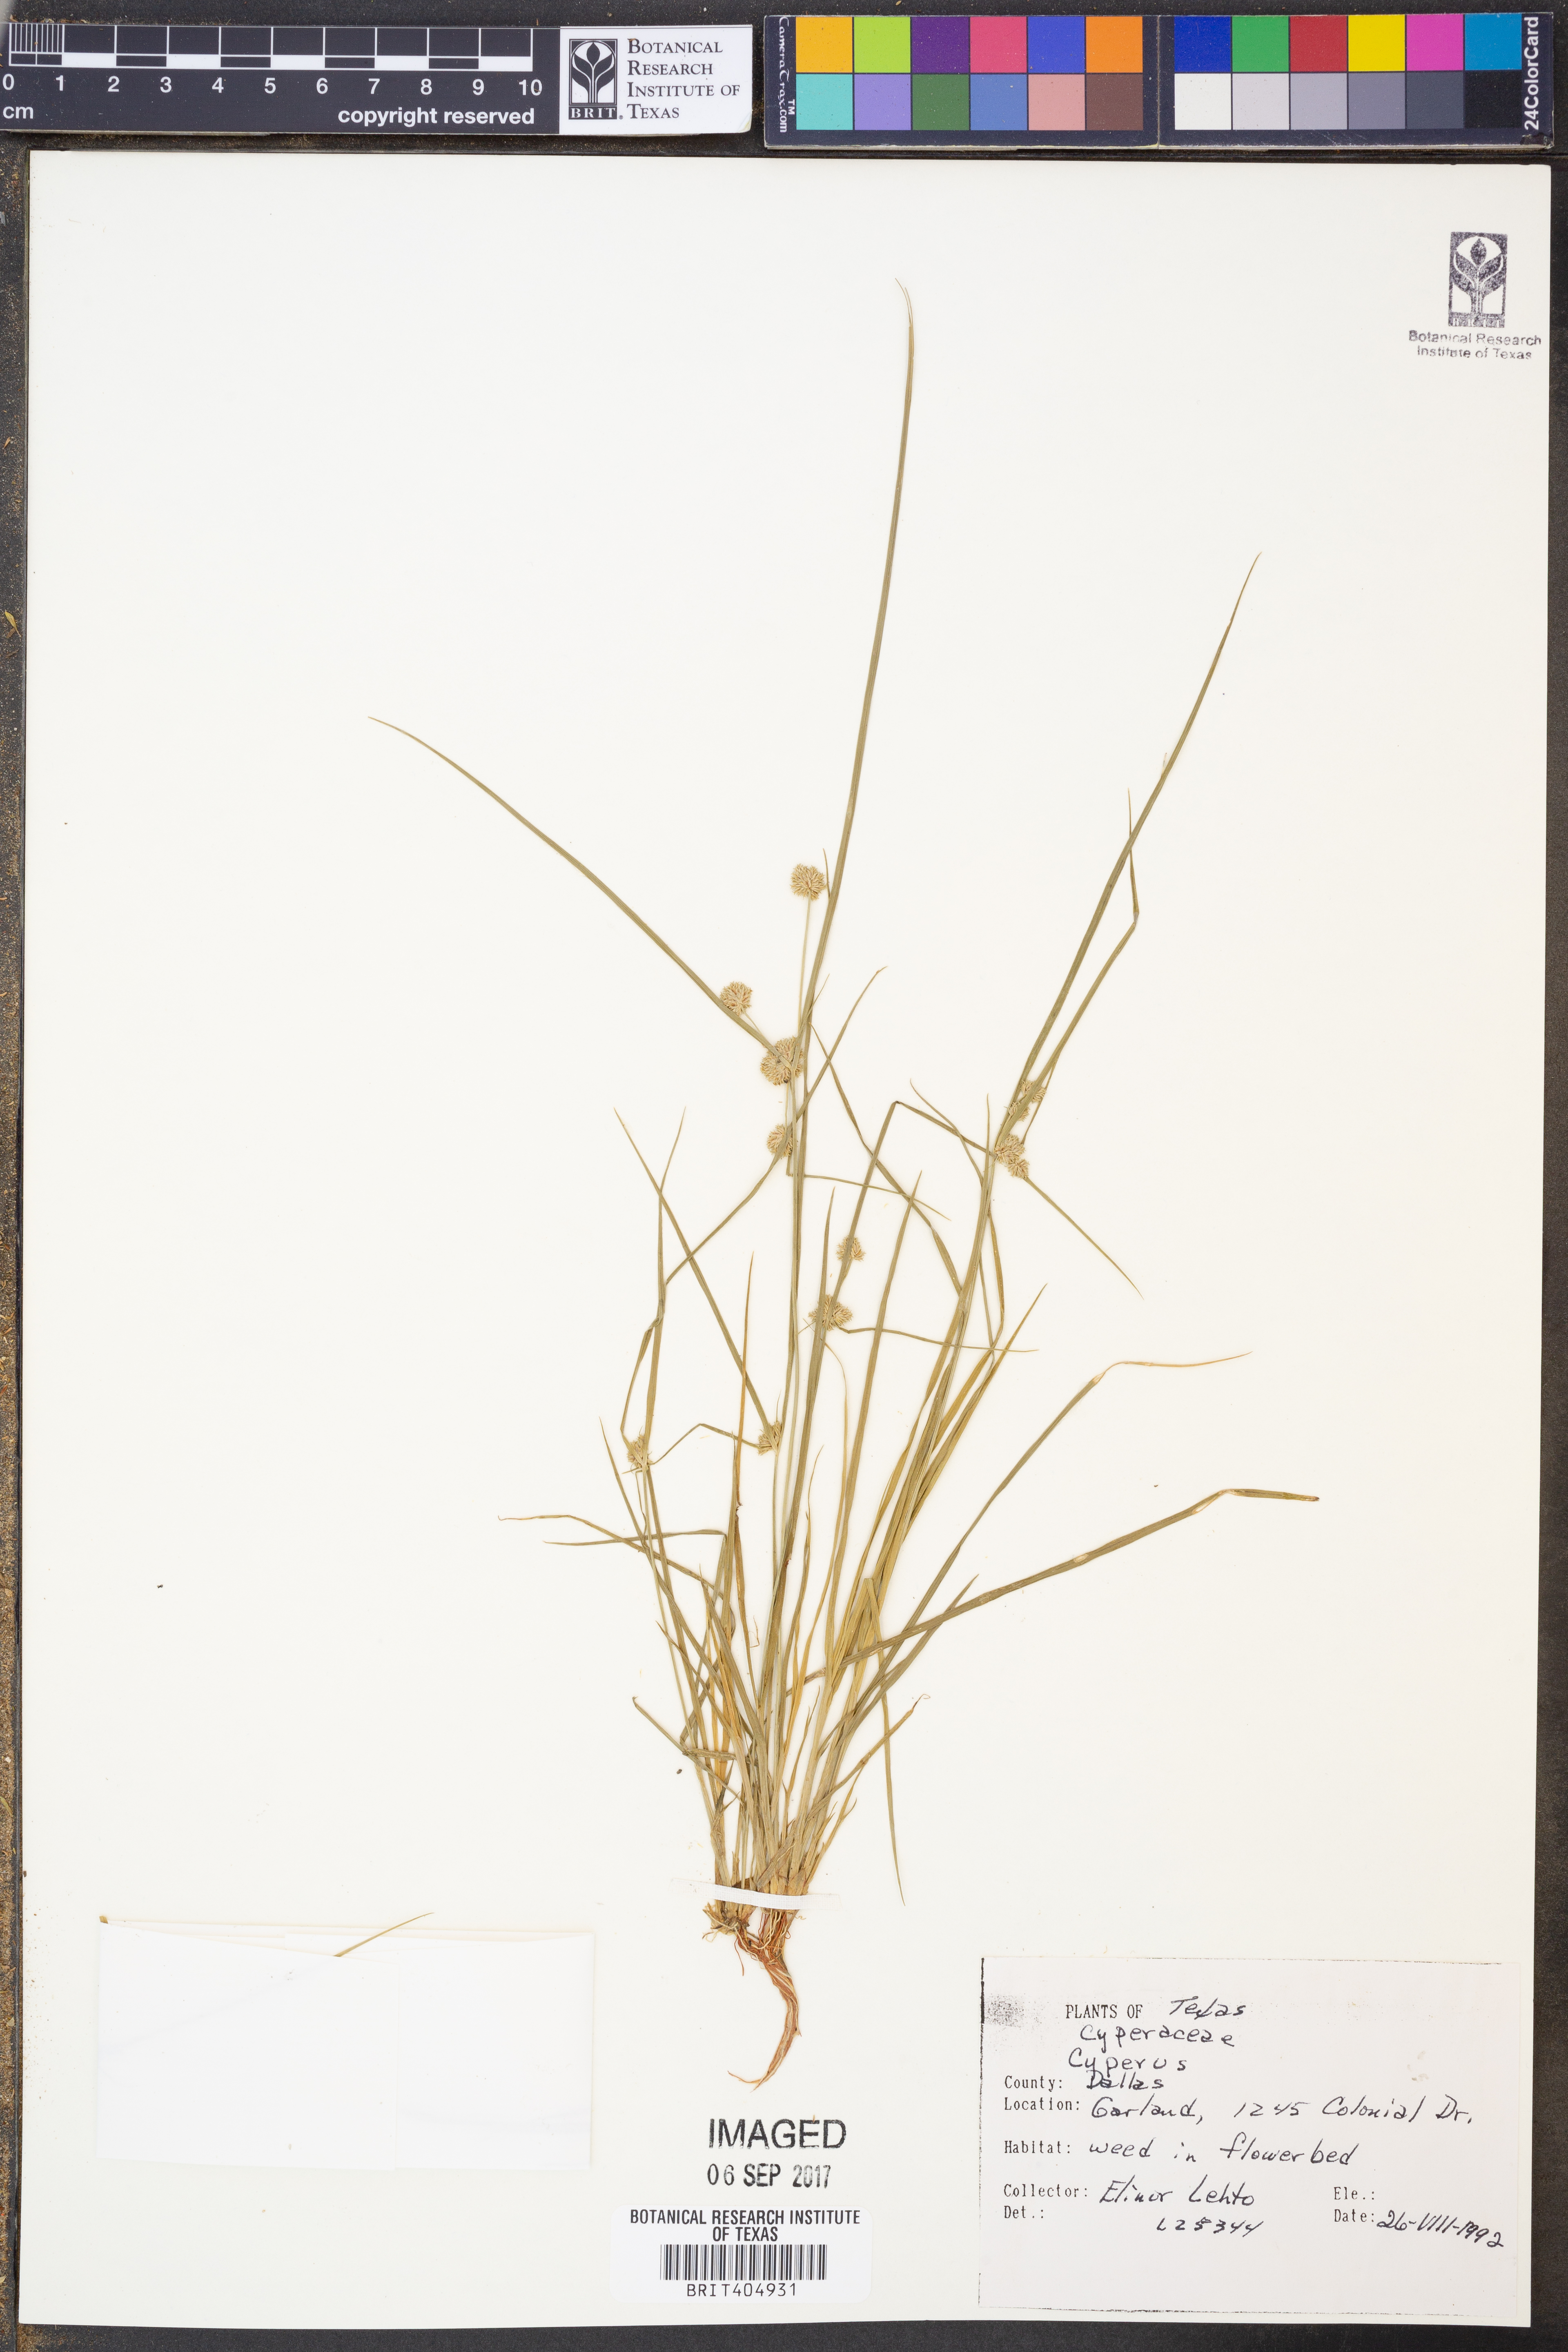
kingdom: Plantae
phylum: Tracheophyta
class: Liliopsida
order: Poales
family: Cyperaceae
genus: Cyperus
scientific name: Cyperus
